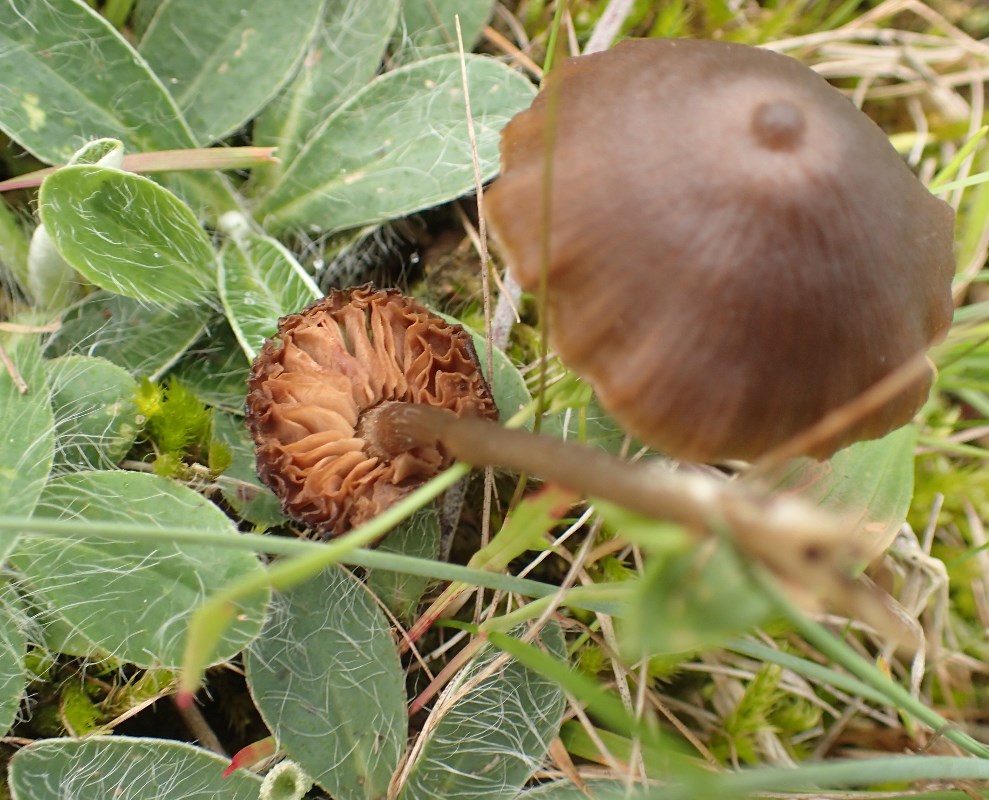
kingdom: Fungi
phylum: Basidiomycota
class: Agaricomycetes
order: Agaricales
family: Entolomataceae
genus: Entoloma
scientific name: Entoloma infula
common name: hvidbladet rødblad
